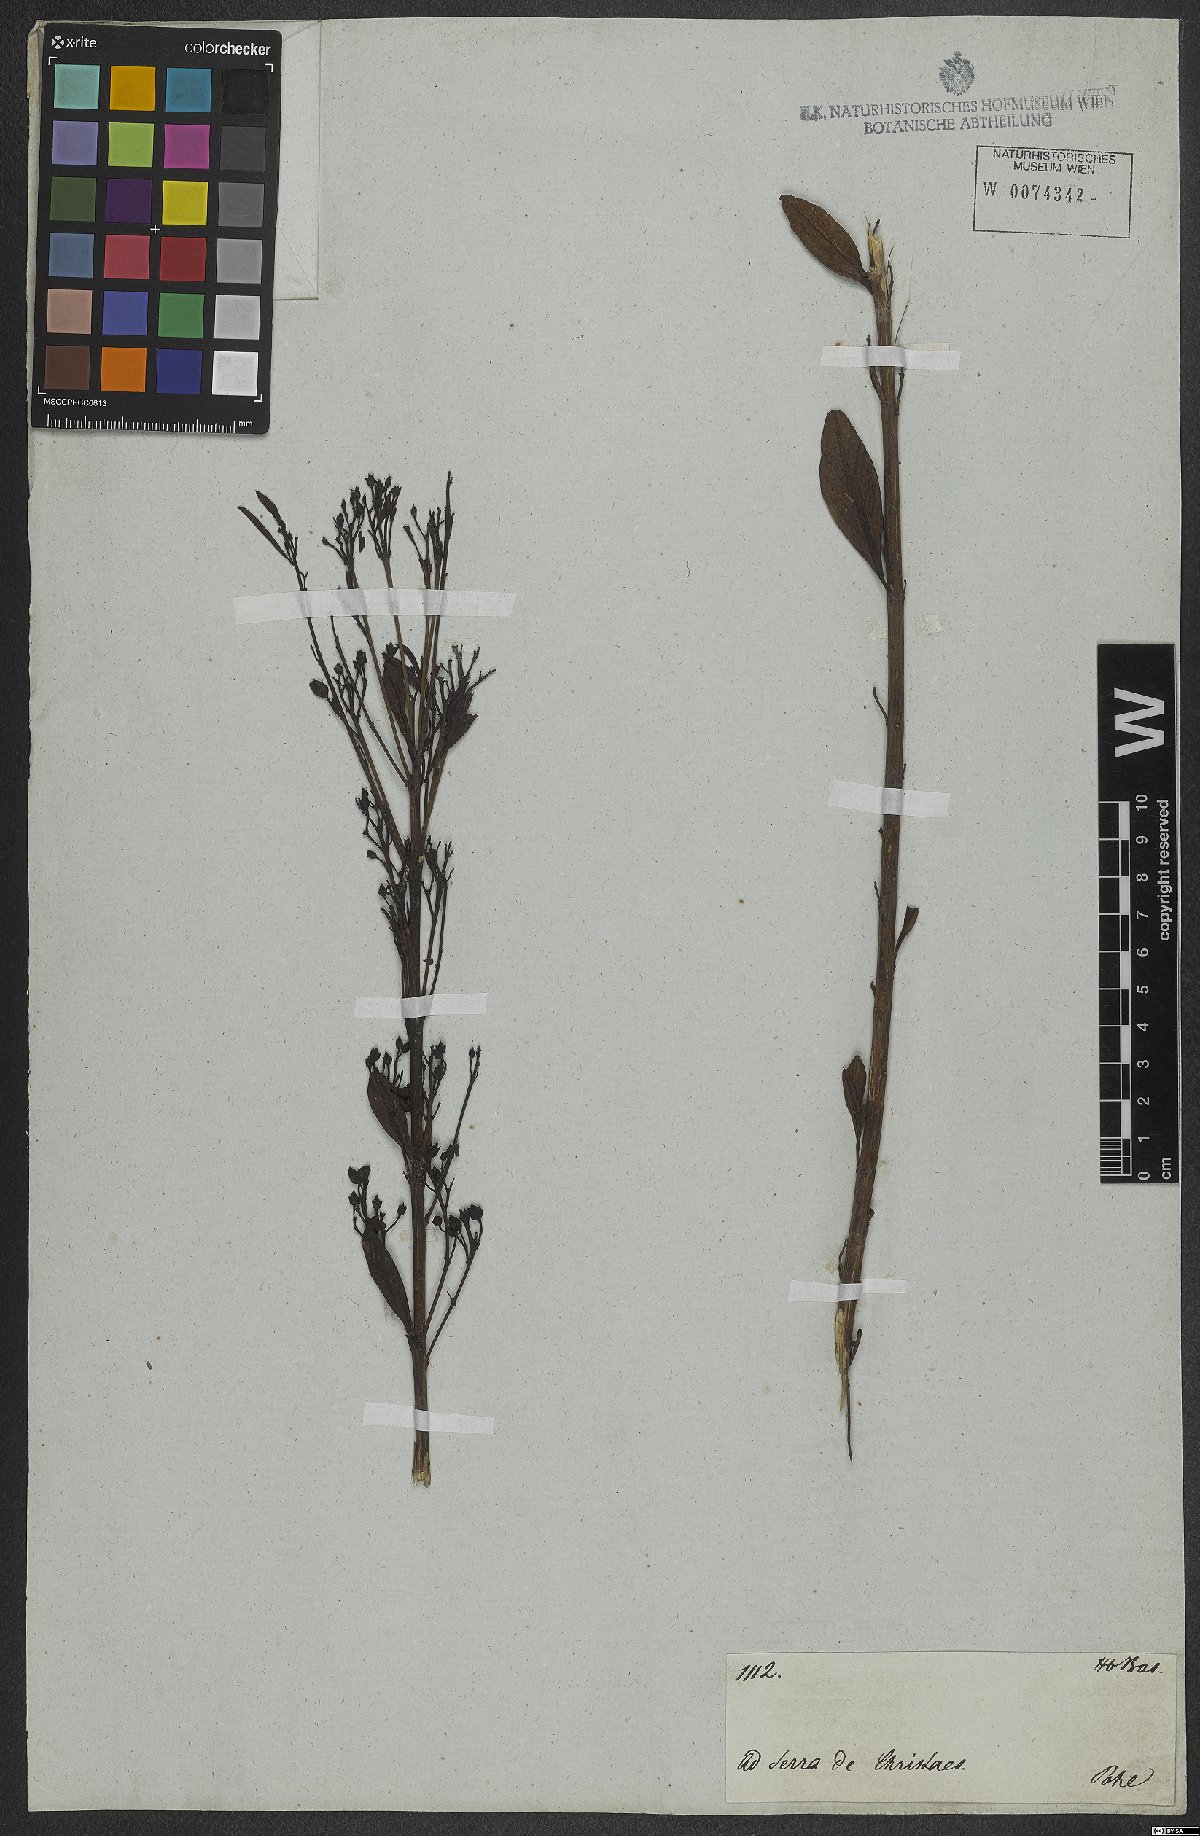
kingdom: Plantae
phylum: Tracheophyta
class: Magnoliopsida
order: Lamiales
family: Orobanchaceae
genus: Esterhazya
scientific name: Esterhazya splendida
